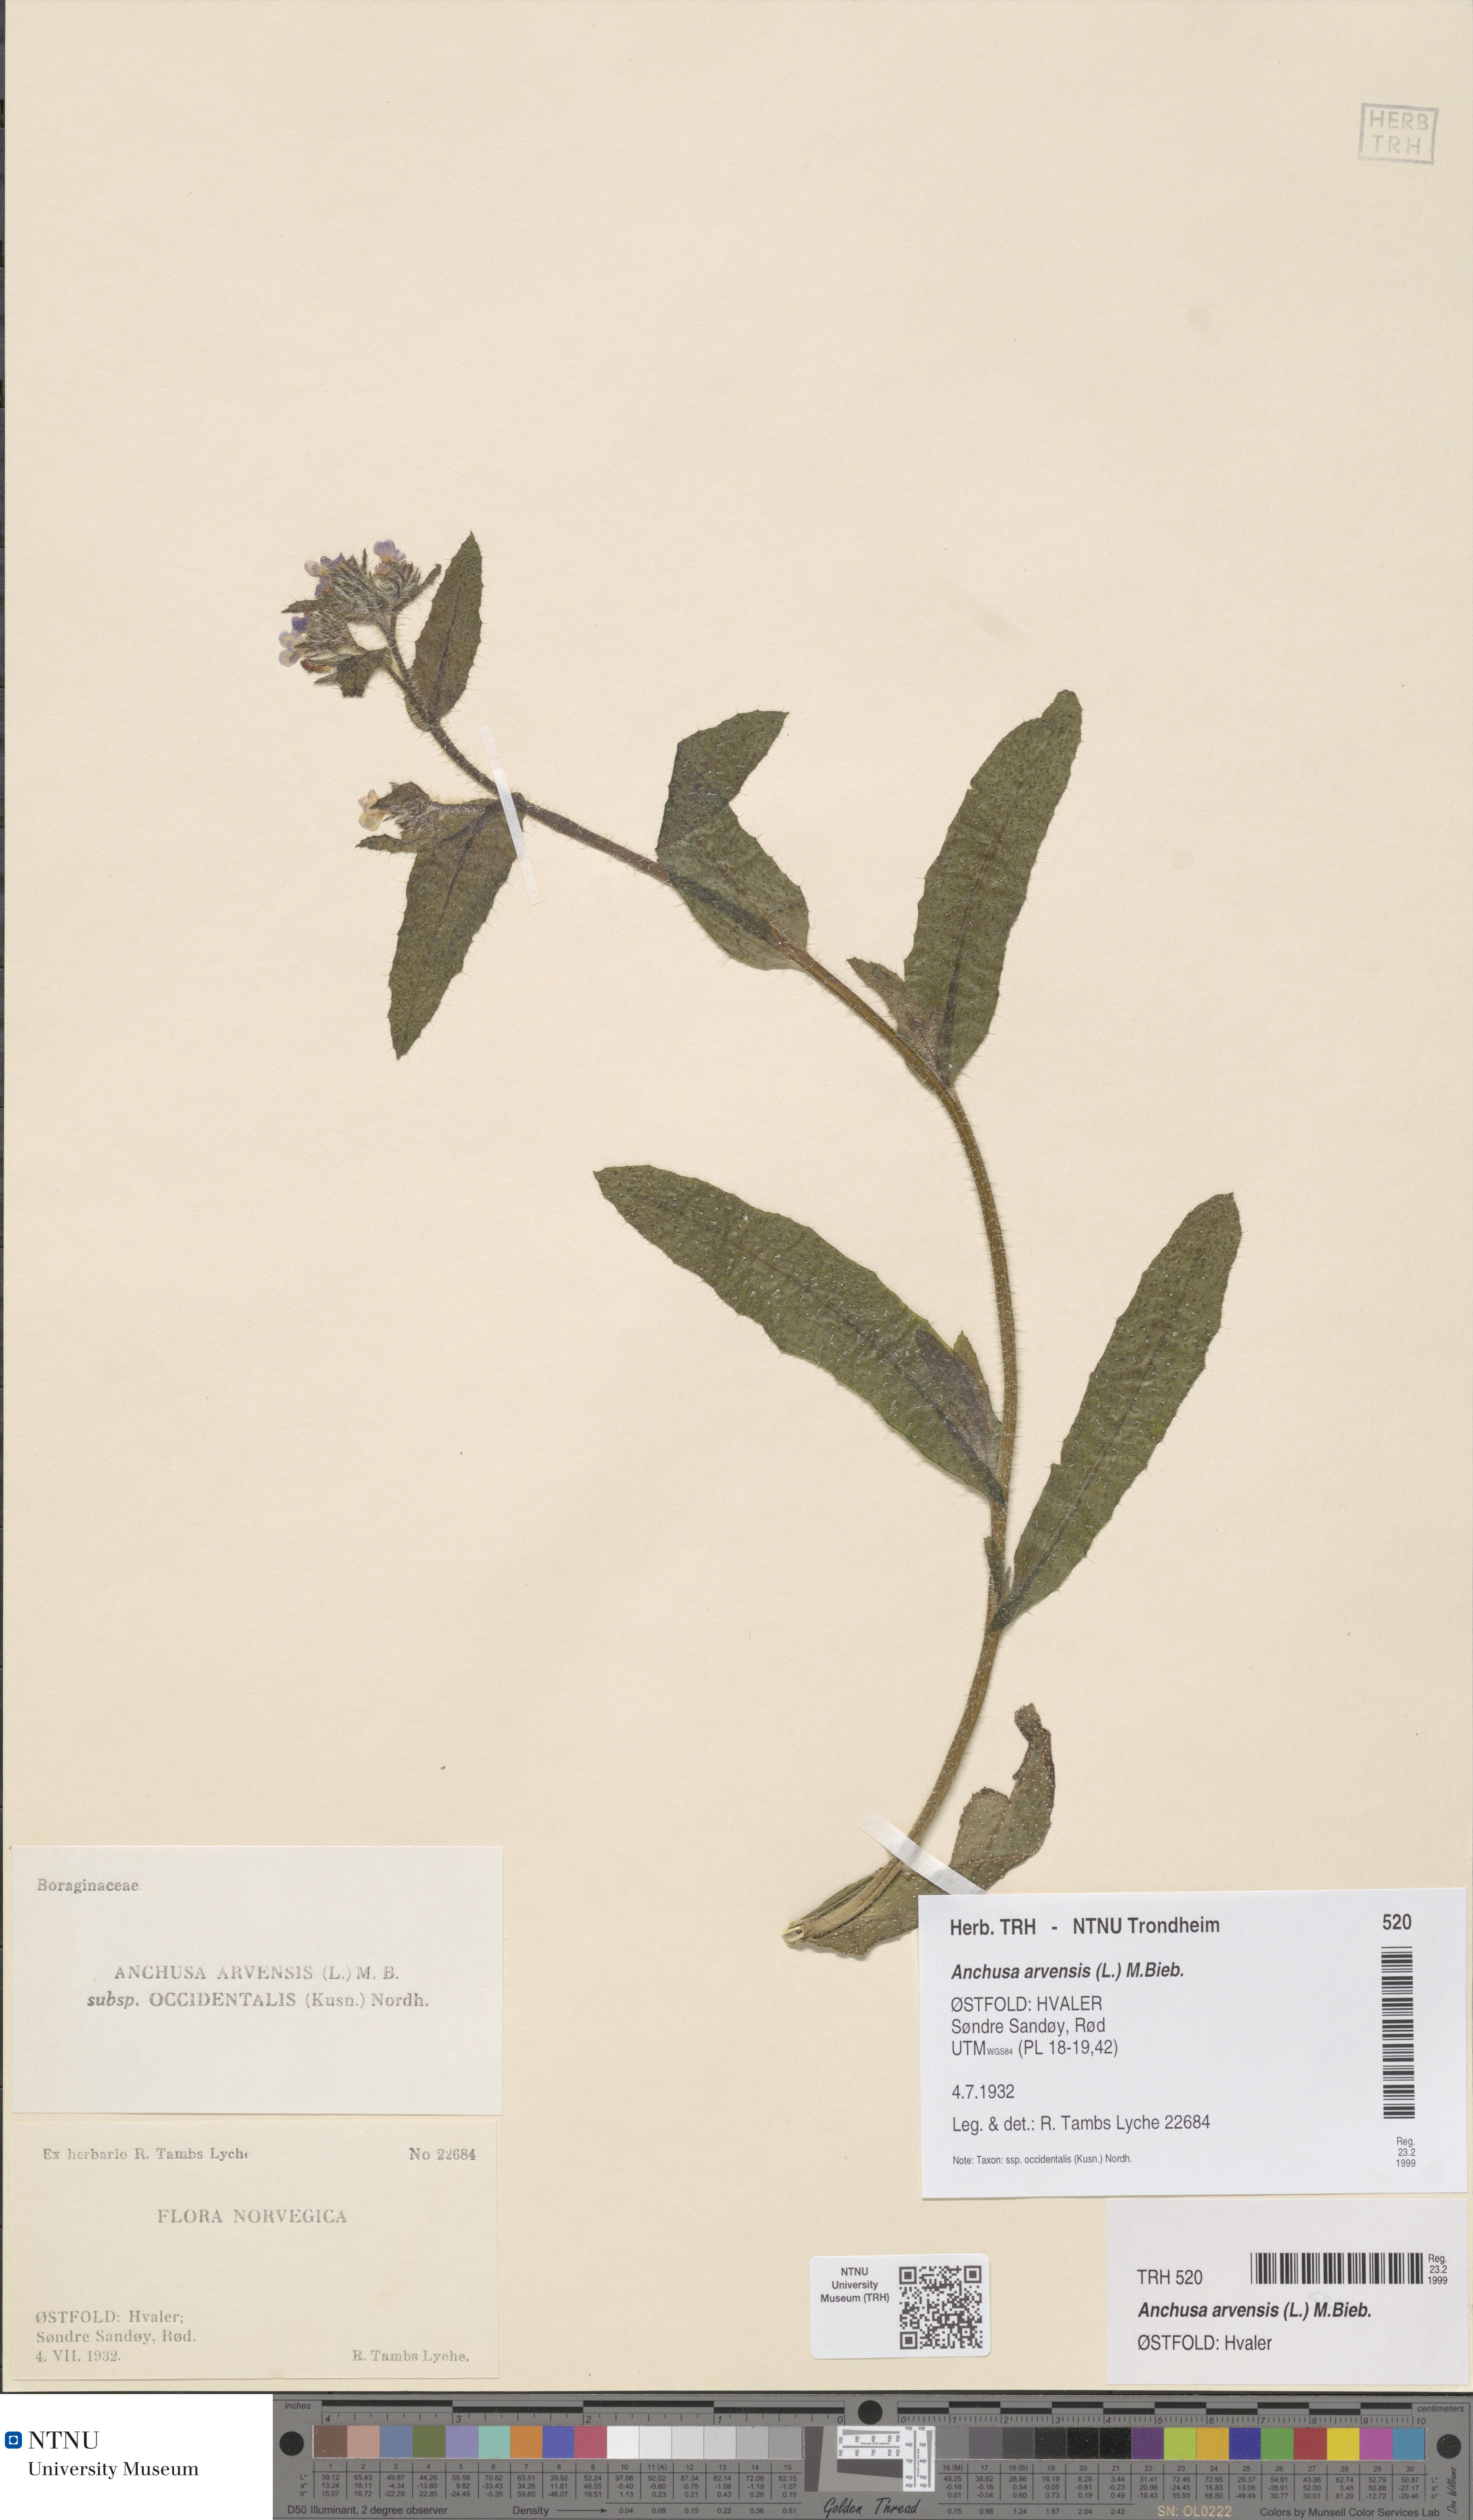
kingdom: Plantae
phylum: Tracheophyta
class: Magnoliopsida
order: Boraginales
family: Boraginaceae
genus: Lycopsis
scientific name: Lycopsis arvensis
